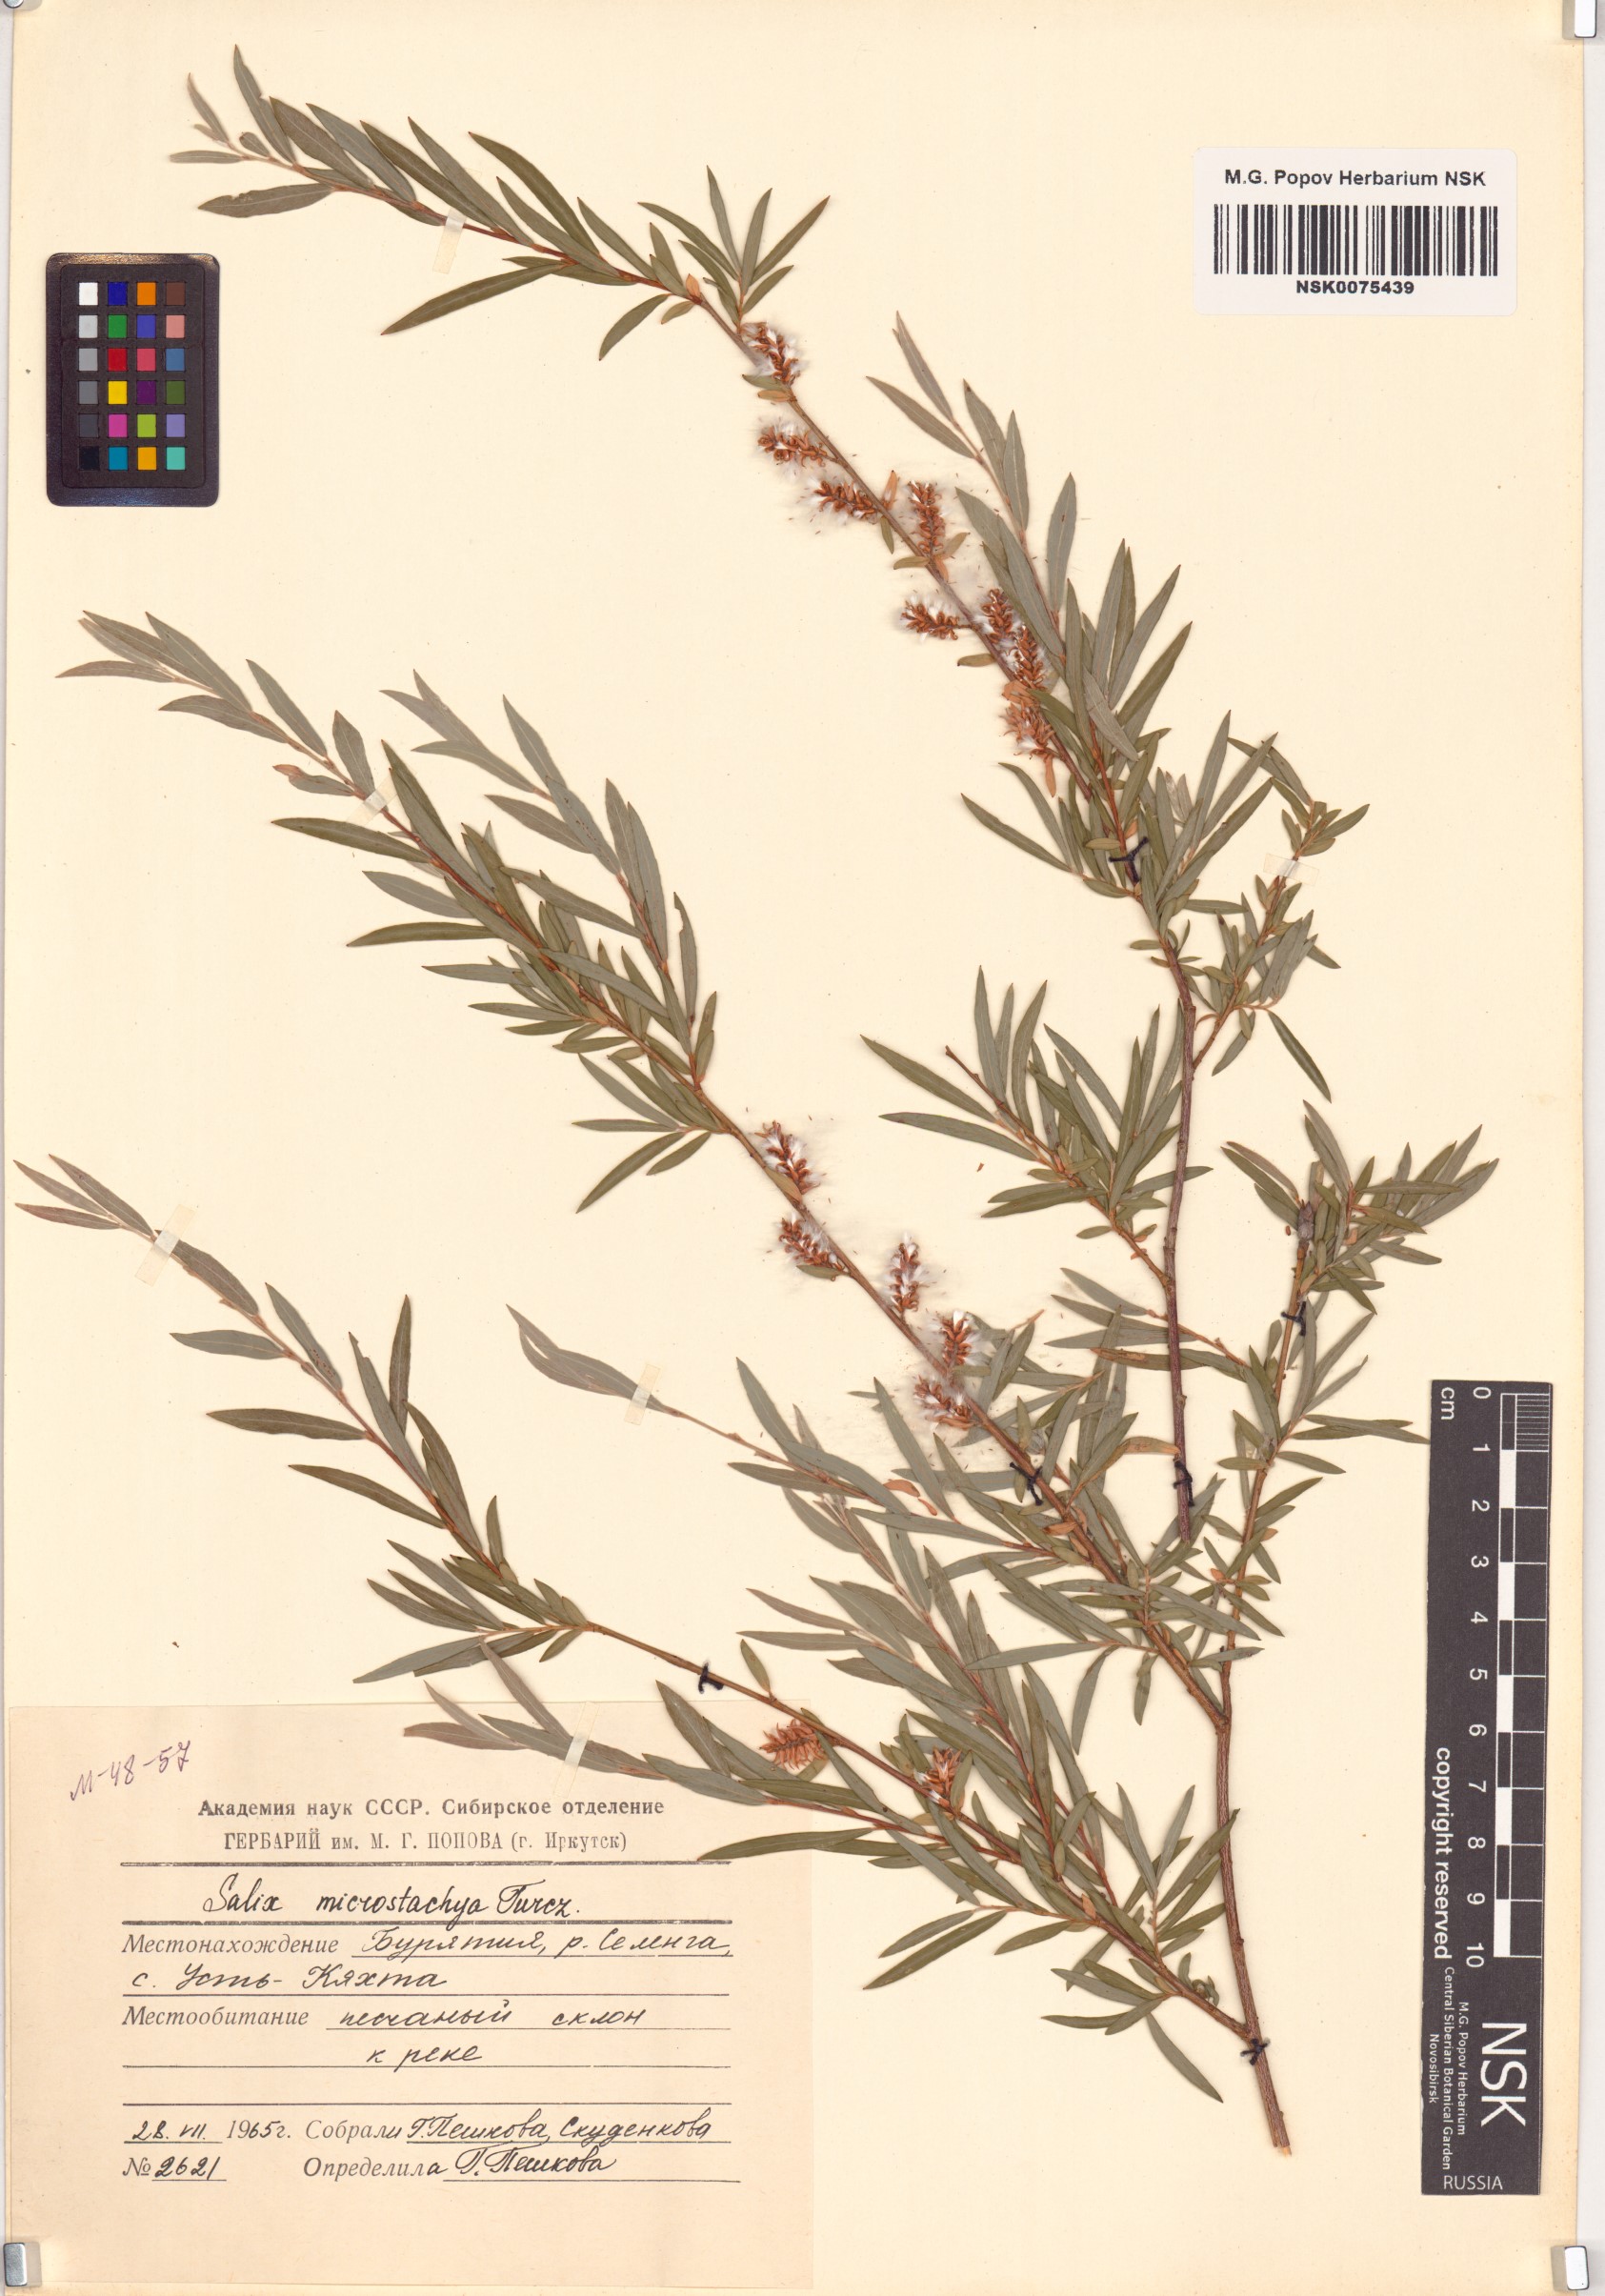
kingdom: Plantae
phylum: Tracheophyta
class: Magnoliopsida
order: Malpighiales
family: Salicaceae
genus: Salix
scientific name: Salix microstachya
